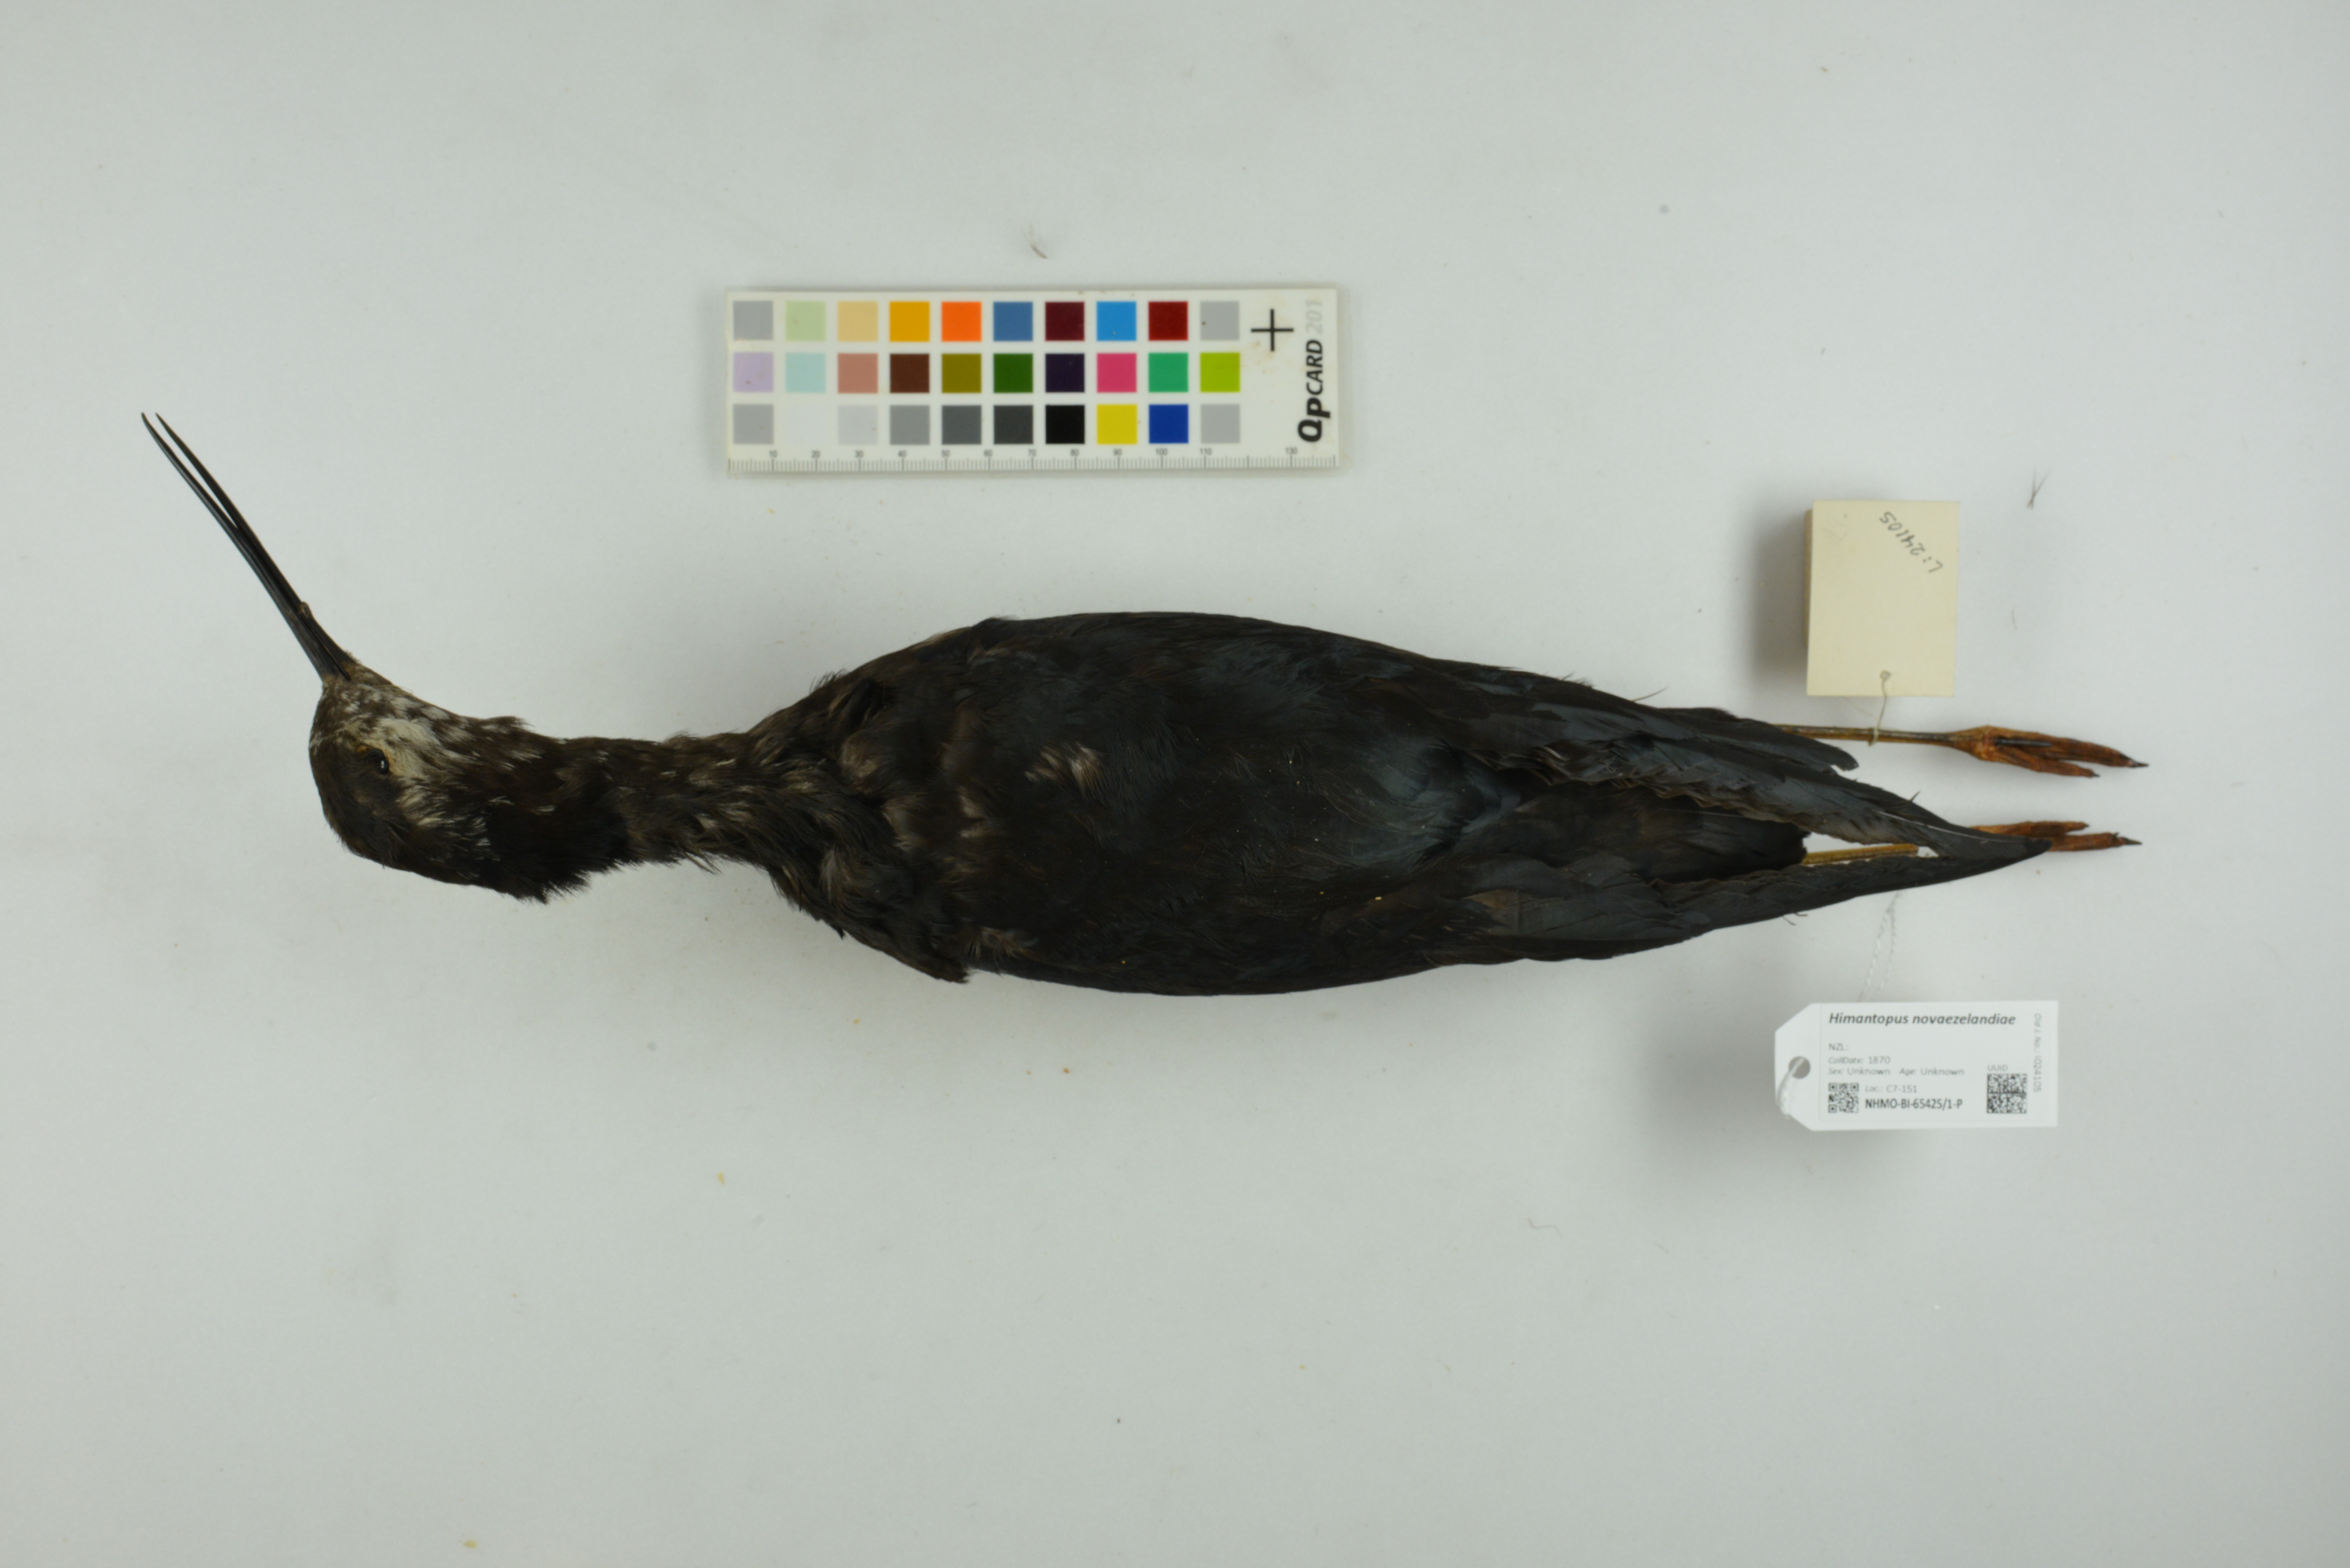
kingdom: Animalia
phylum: Chordata
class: Aves
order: Charadriiformes
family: Recurvirostridae
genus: Himantopus
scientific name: Himantopus novaezelandiae
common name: Black stilt
